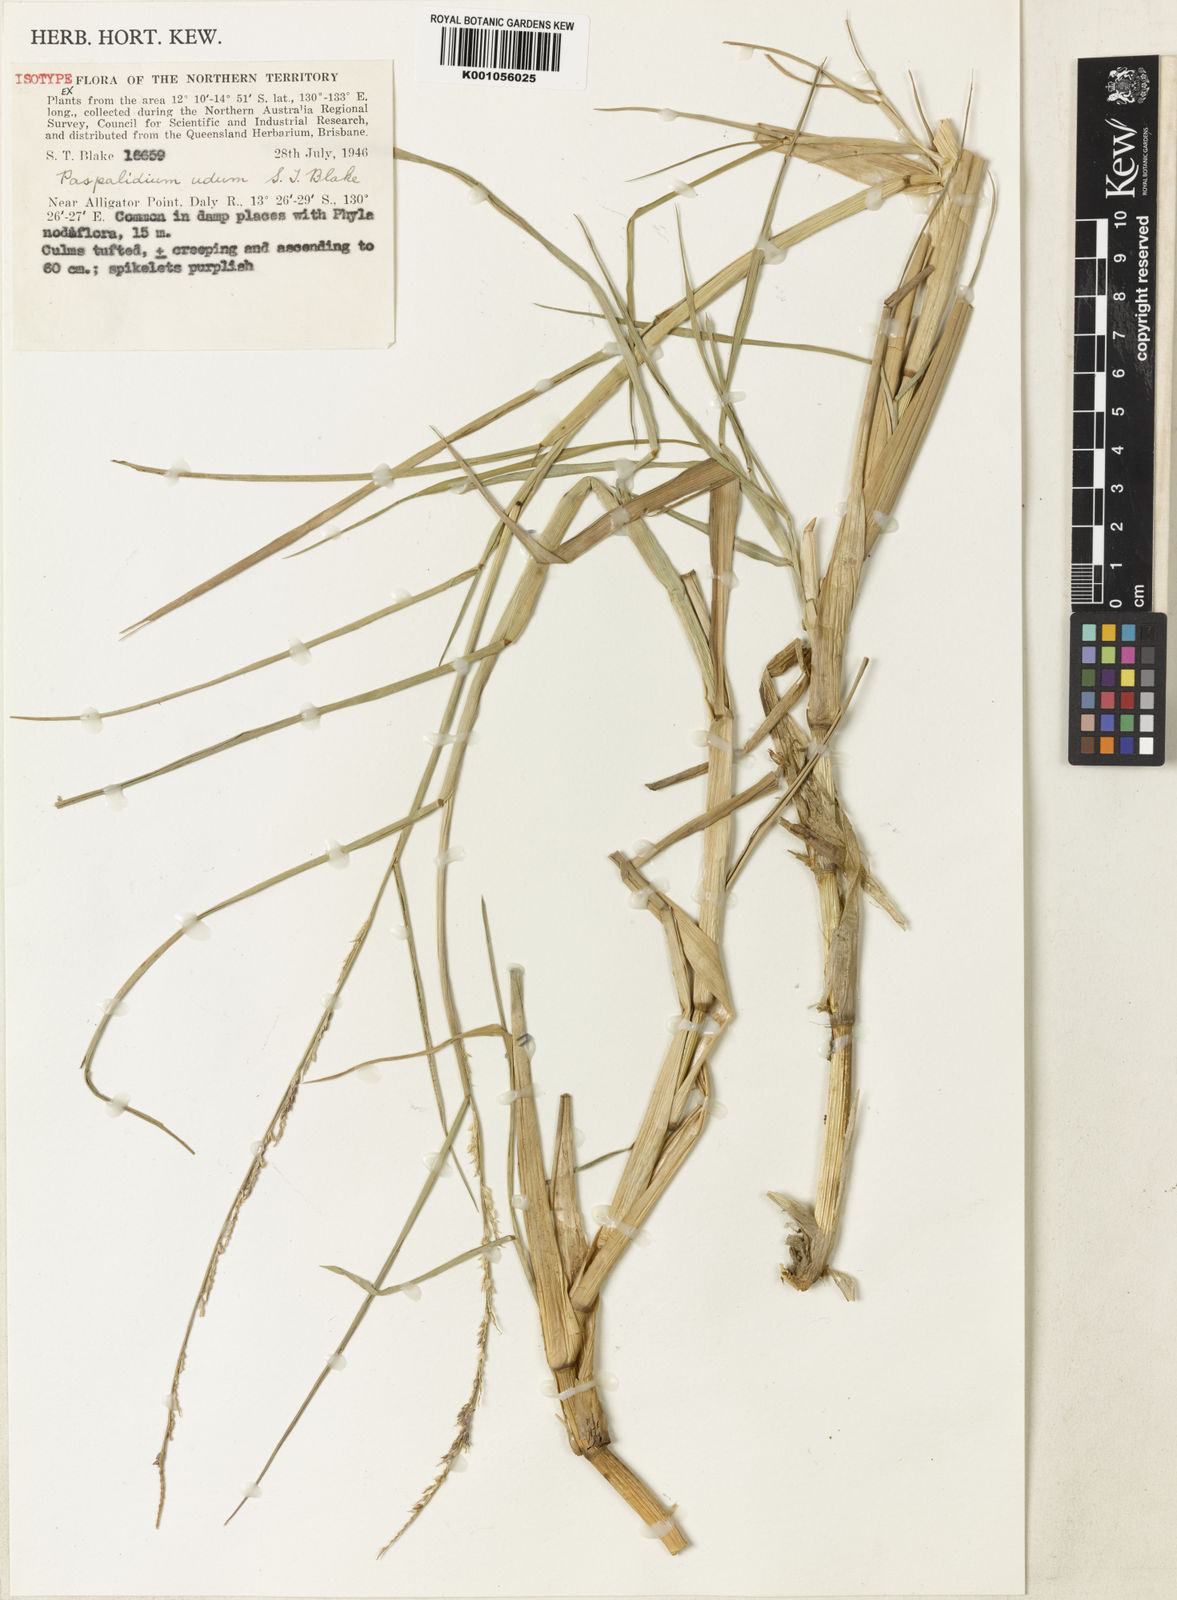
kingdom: Plantae
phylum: Tracheophyta
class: Liliopsida
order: Poales
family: Poaceae
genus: Setaria
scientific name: Setaria uda
